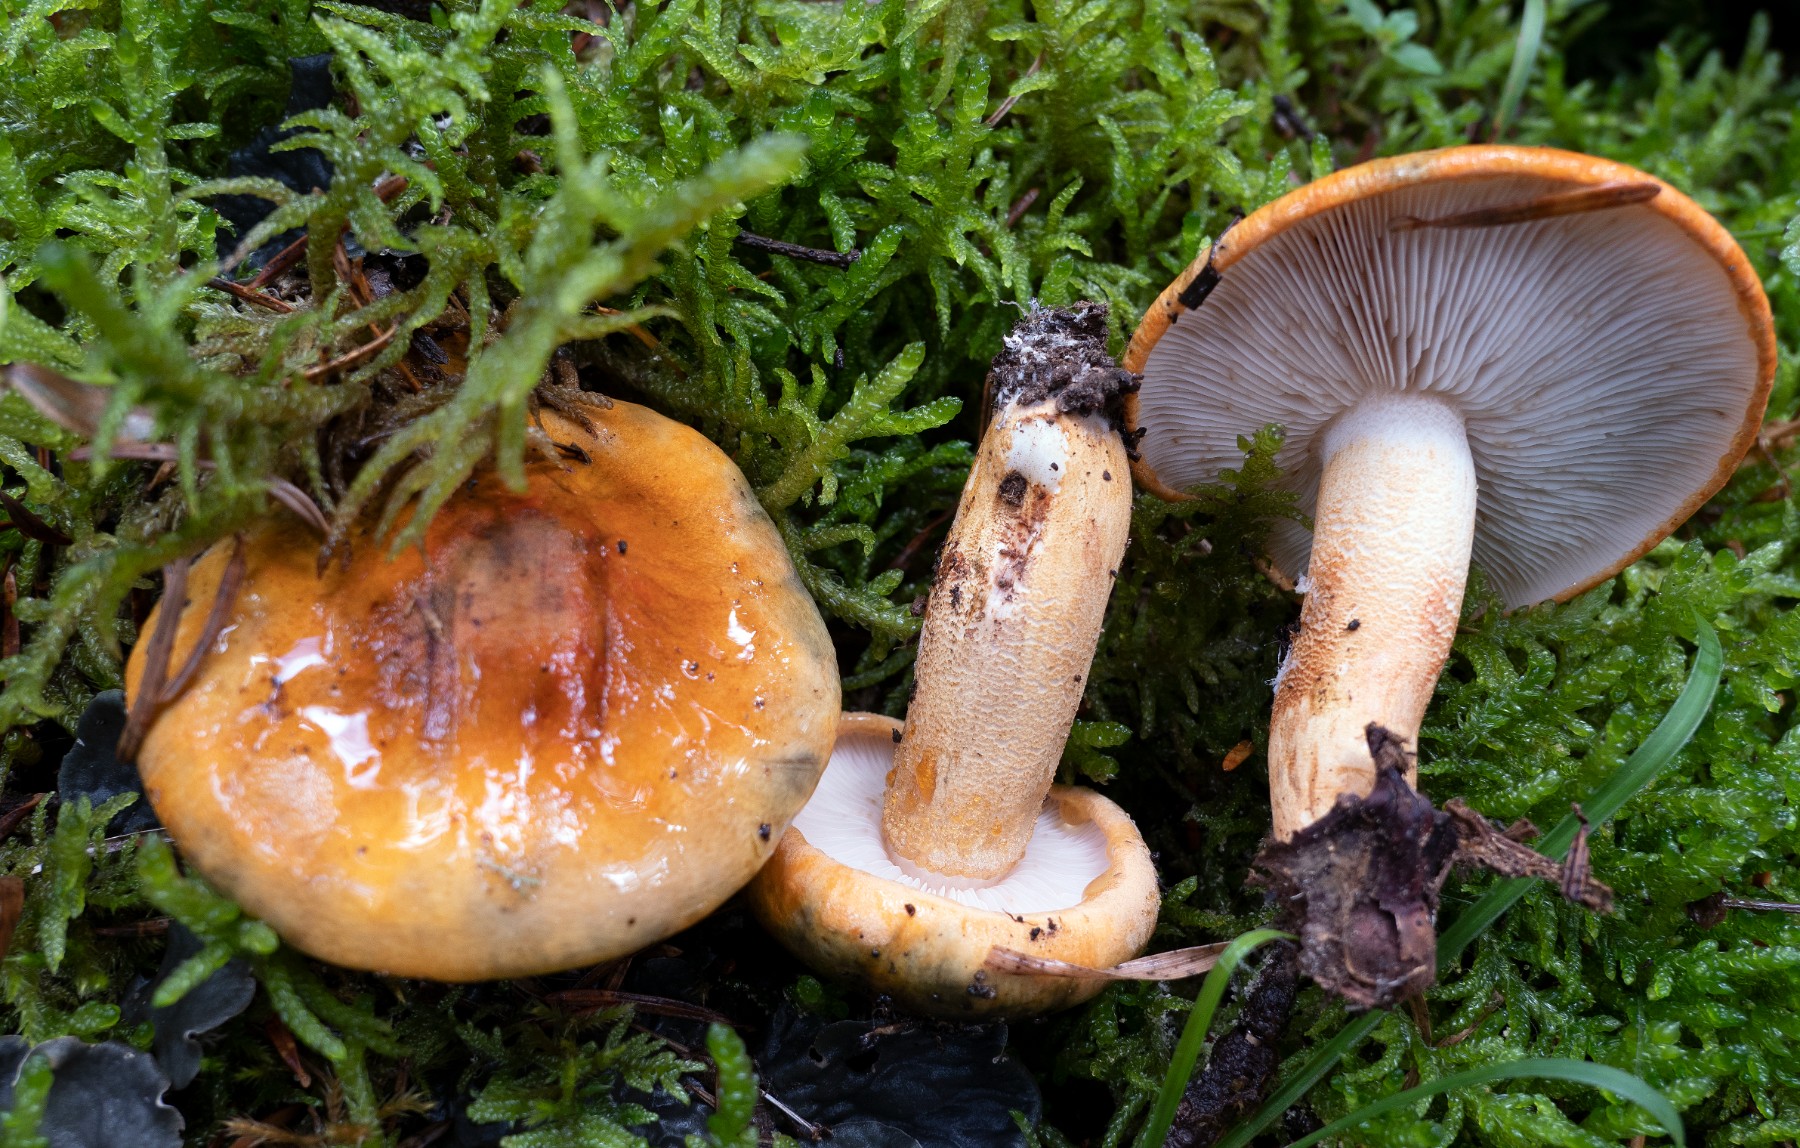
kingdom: Fungi
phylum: Basidiomycota
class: Agaricomycetes
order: Agaricales
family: Tricholomataceae
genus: Tricholoma
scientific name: Tricholoma aurantium
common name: orangegul ridderhat
